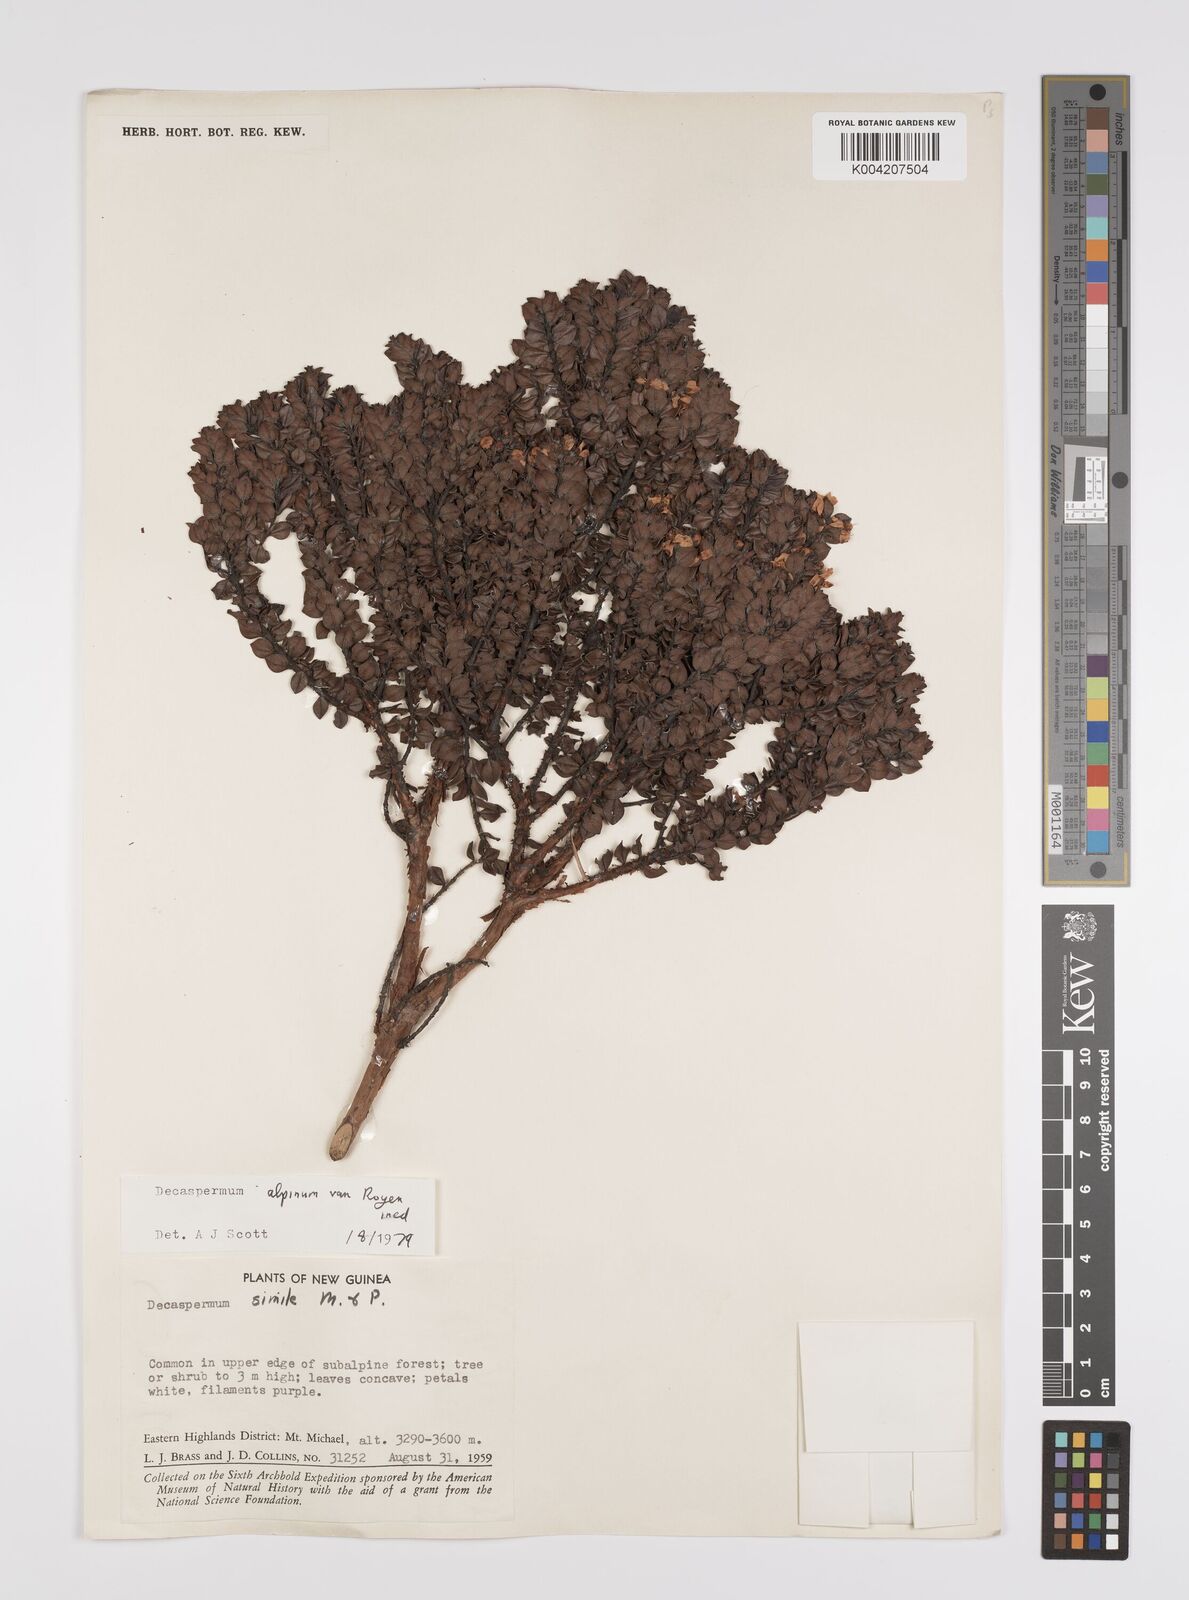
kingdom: Plantae
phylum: Tracheophyta
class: Magnoliopsida
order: Myrtales
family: Myrtaceae
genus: Decaspermum
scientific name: Decaspermum alpinum
